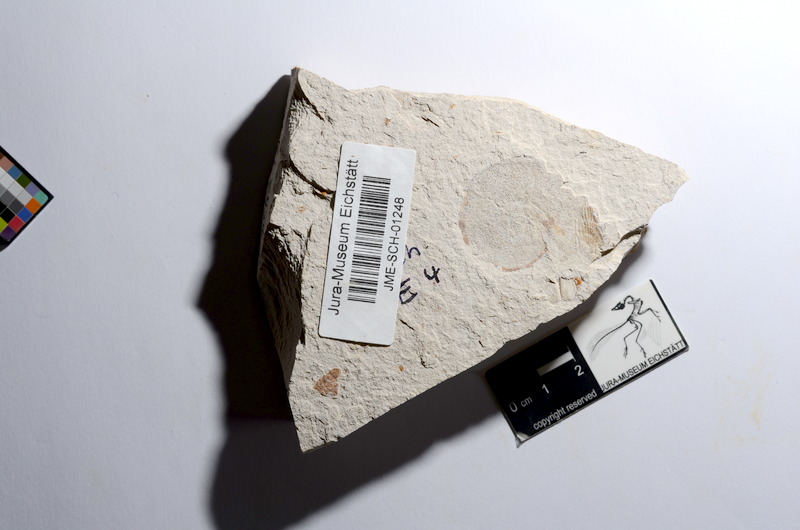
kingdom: Animalia
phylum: Chordata
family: Ascalaboidae
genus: Tharsis
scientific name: Tharsis dubius
